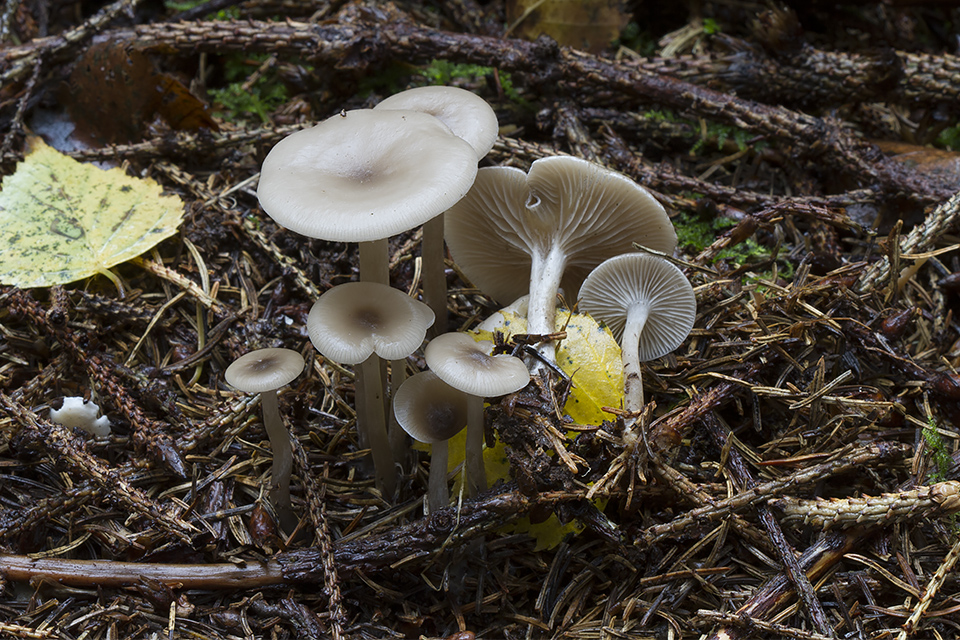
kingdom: Fungi
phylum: Basidiomycota
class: Agaricomycetes
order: Agaricales
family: Tricholomataceae
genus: Clitocybe
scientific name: Clitocybe metachroa
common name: grå tragthat
